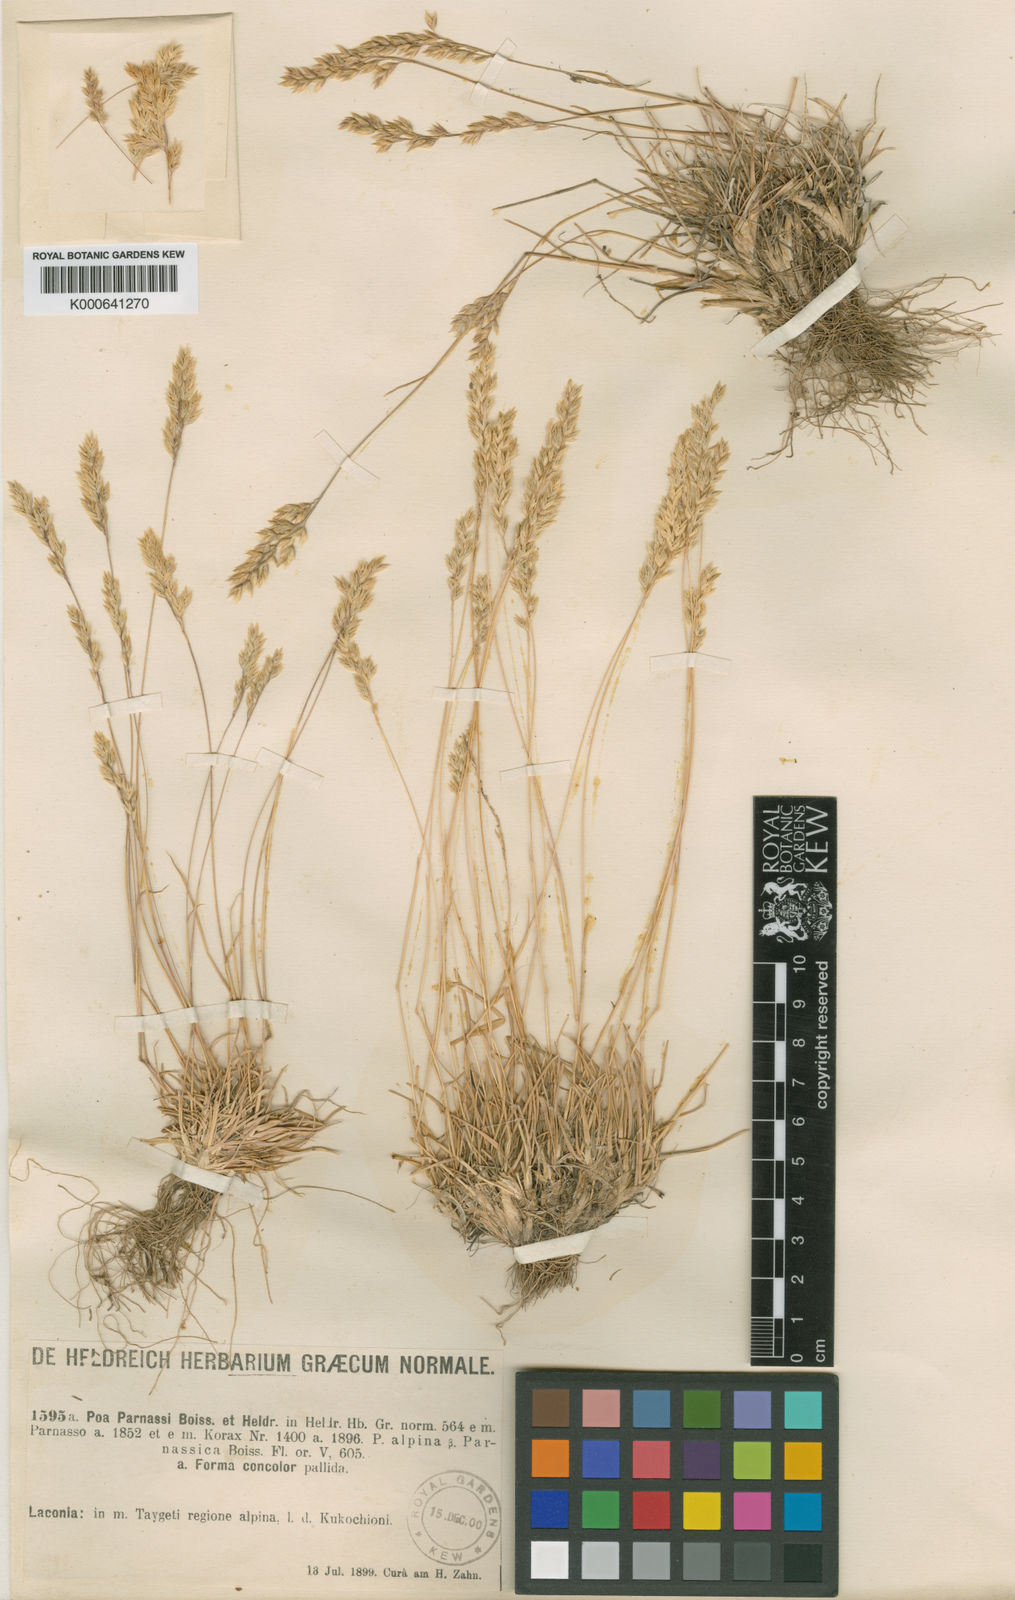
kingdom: Plantae
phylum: Tracheophyta
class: Liliopsida
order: Poales
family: Poaceae
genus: Briza
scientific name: Briza media
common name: Quaking grass
